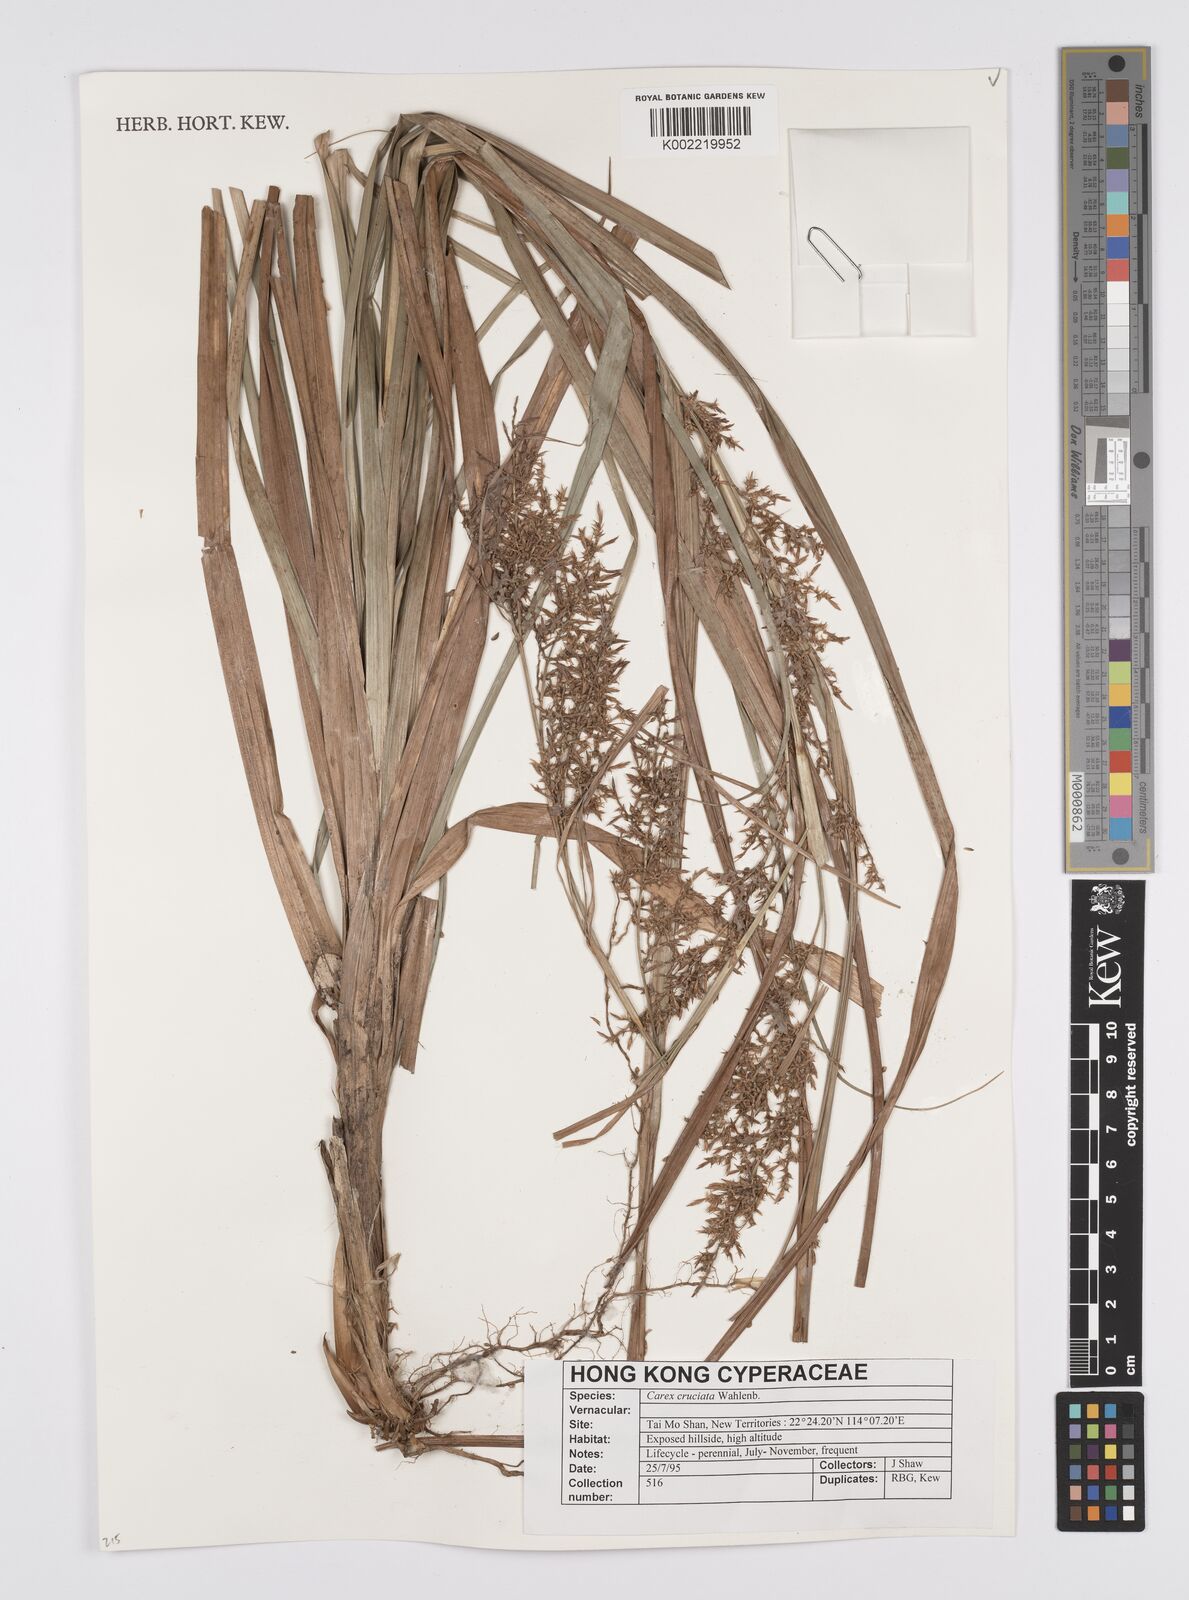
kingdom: Plantae
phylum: Tracheophyta
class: Liliopsida
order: Poales
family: Cyperaceae
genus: Carex
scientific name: Carex cruciata
